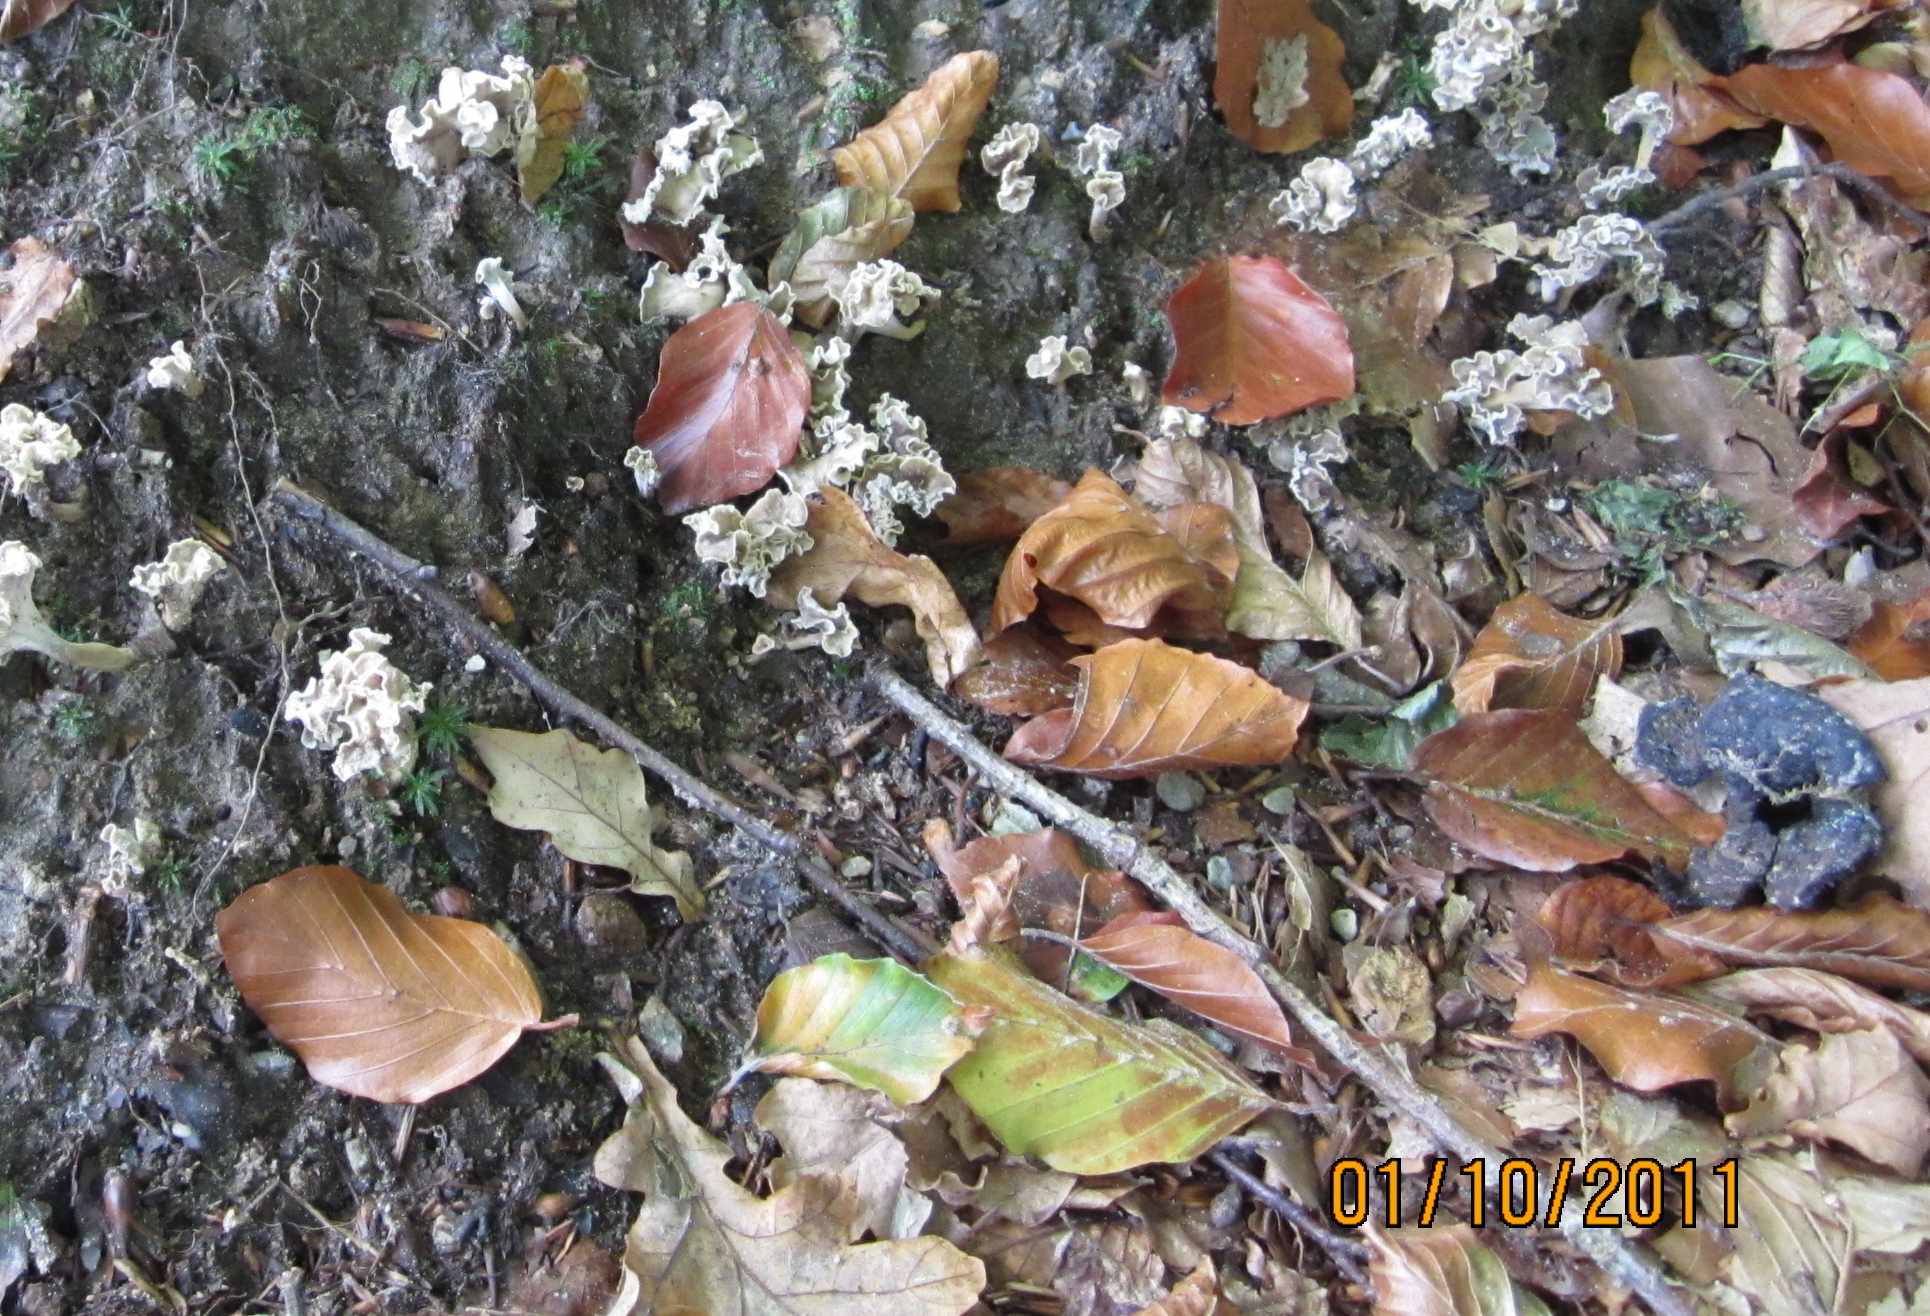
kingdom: Fungi
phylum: Basidiomycota
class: Agaricomycetes
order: Cantharellales
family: Hydnaceae
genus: Craterellus
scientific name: Craterellus undulatus
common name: liden kantarel
